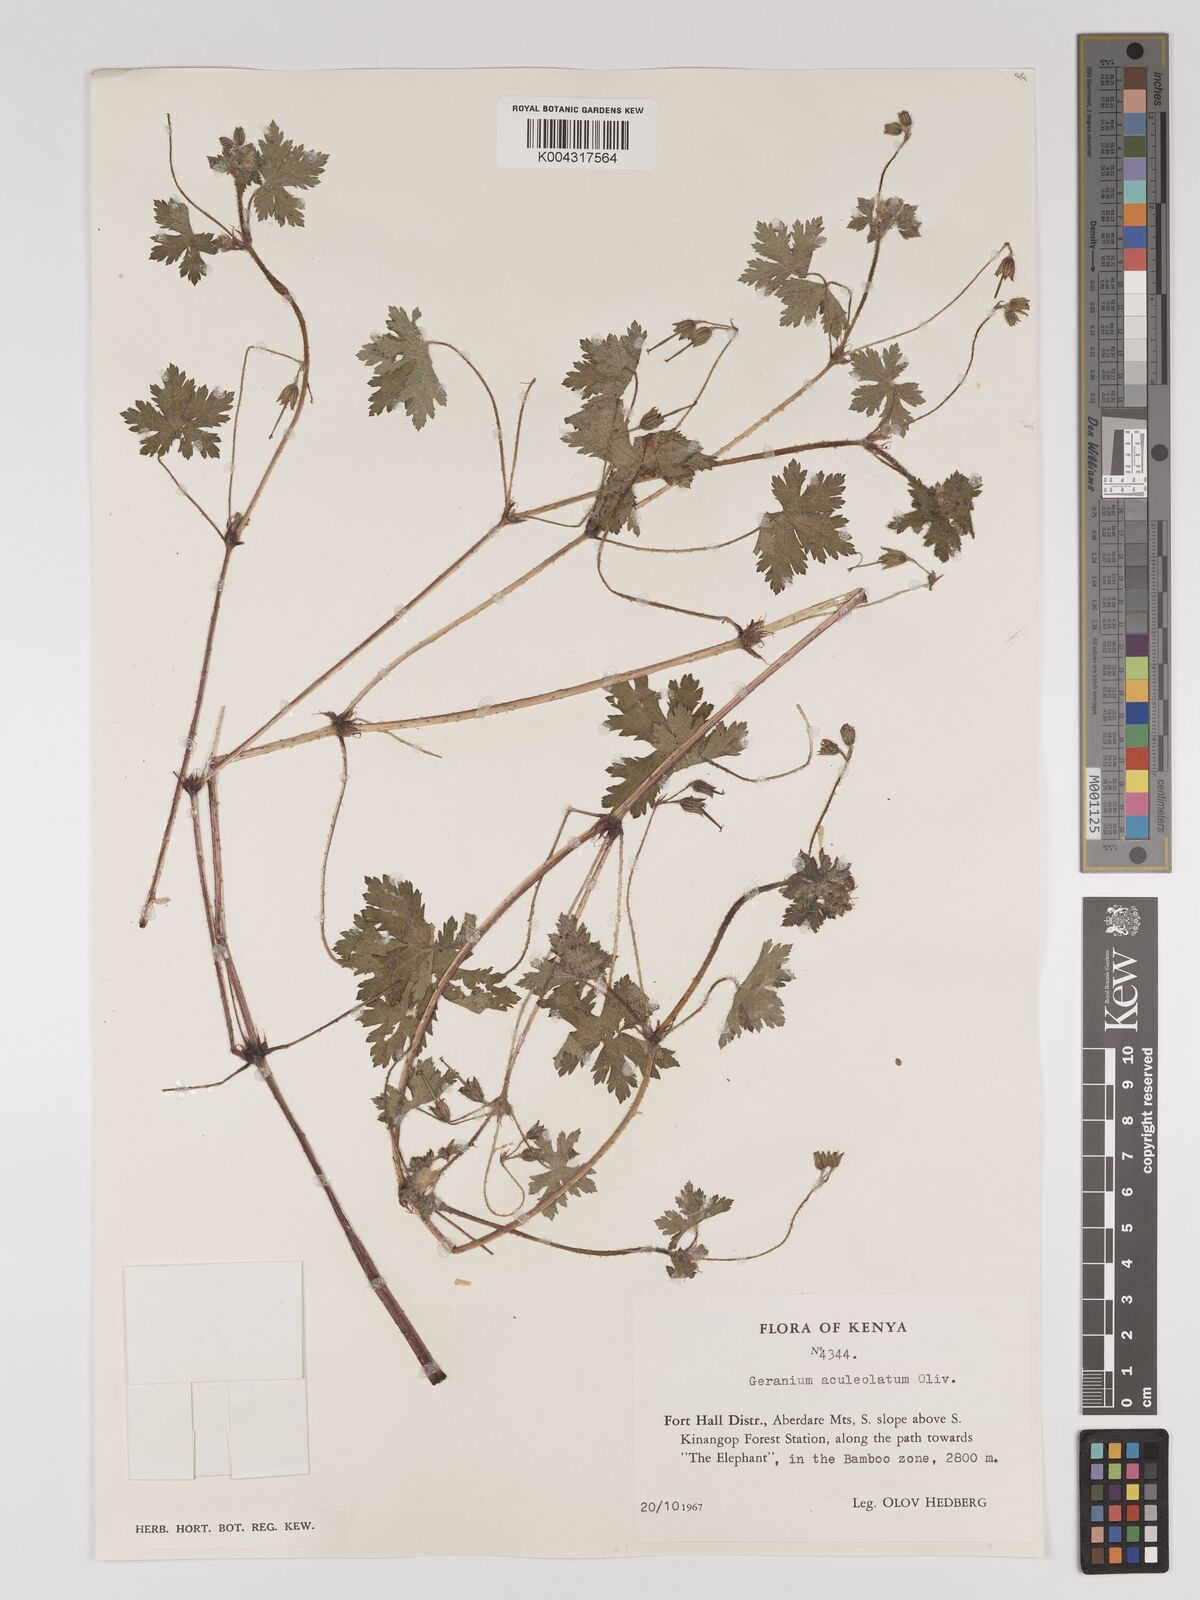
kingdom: Plantae
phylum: Tracheophyta
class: Magnoliopsida
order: Geraniales
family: Geraniaceae
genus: Geranium
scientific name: Geranium aculeolatum
